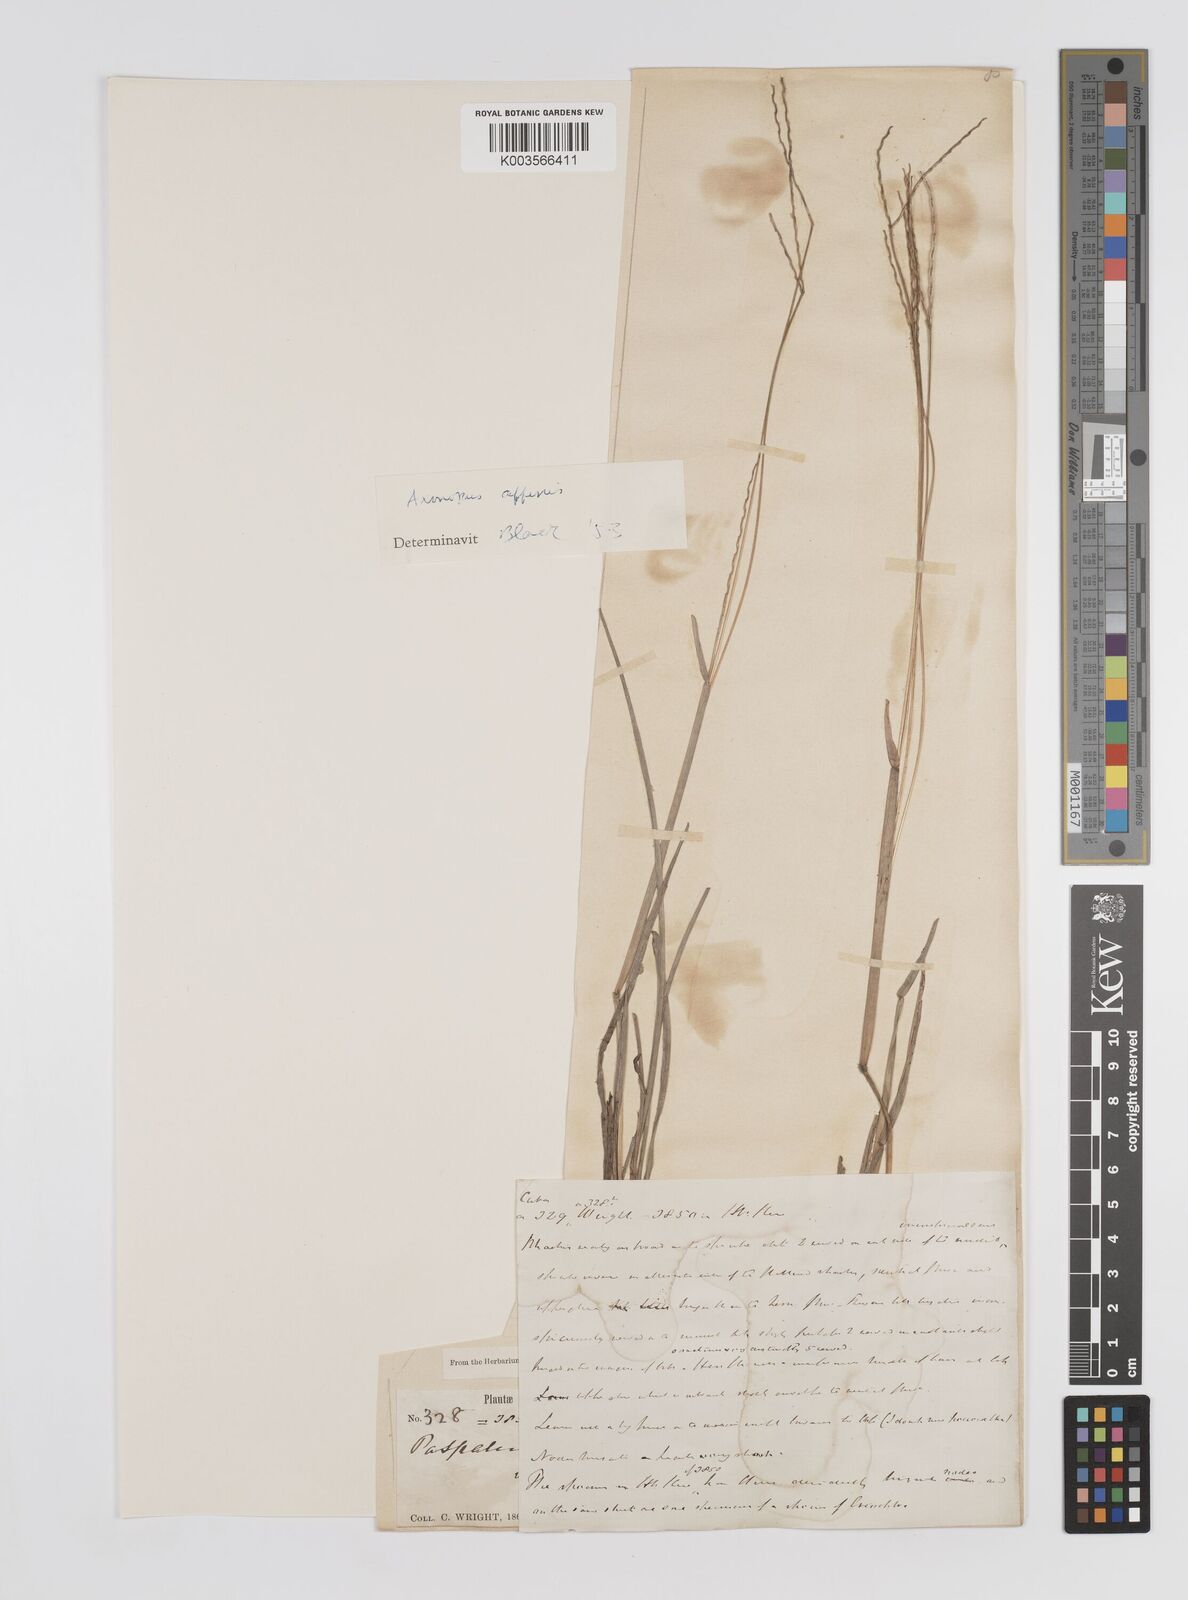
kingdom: Plantae
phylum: Tracheophyta
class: Liliopsida
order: Poales
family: Poaceae
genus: Axonopus
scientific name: Axonopus fissifolius
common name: Common carpetgrass
